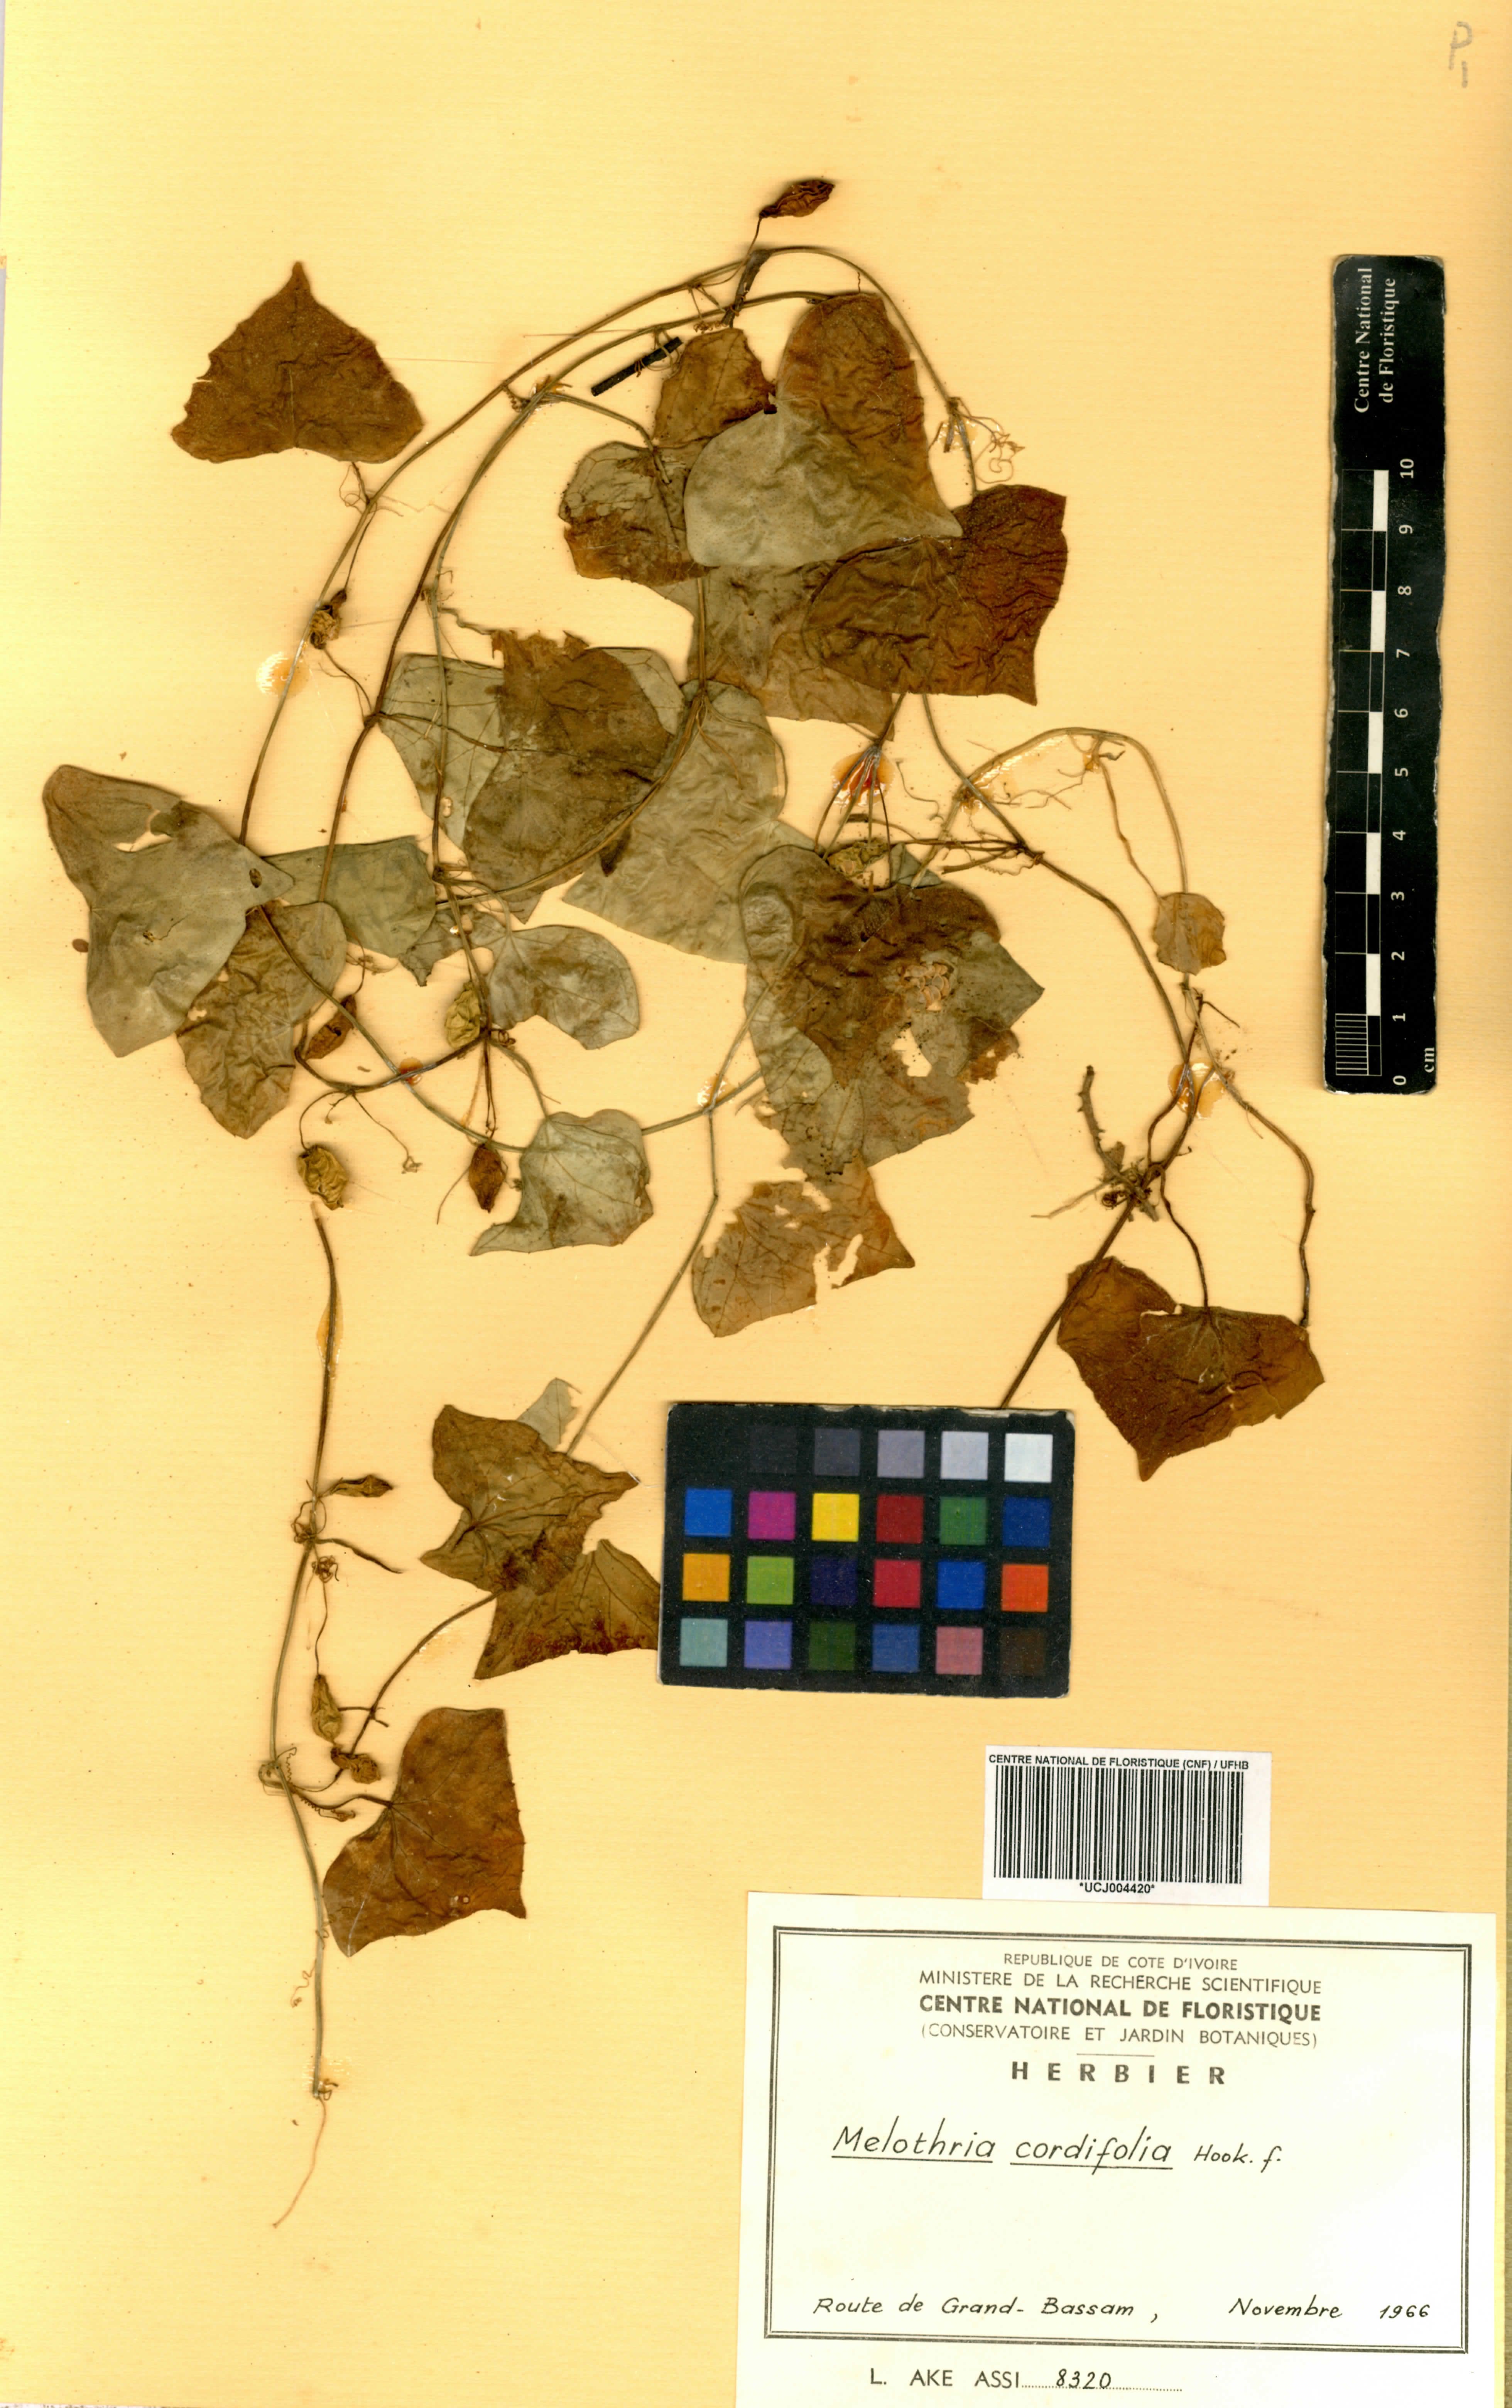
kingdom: Plantae
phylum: Tracheophyta
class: Magnoliopsida
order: Cucurbitales
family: Cucurbitaceae
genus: Zehneria
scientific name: Zehneria gilletii
